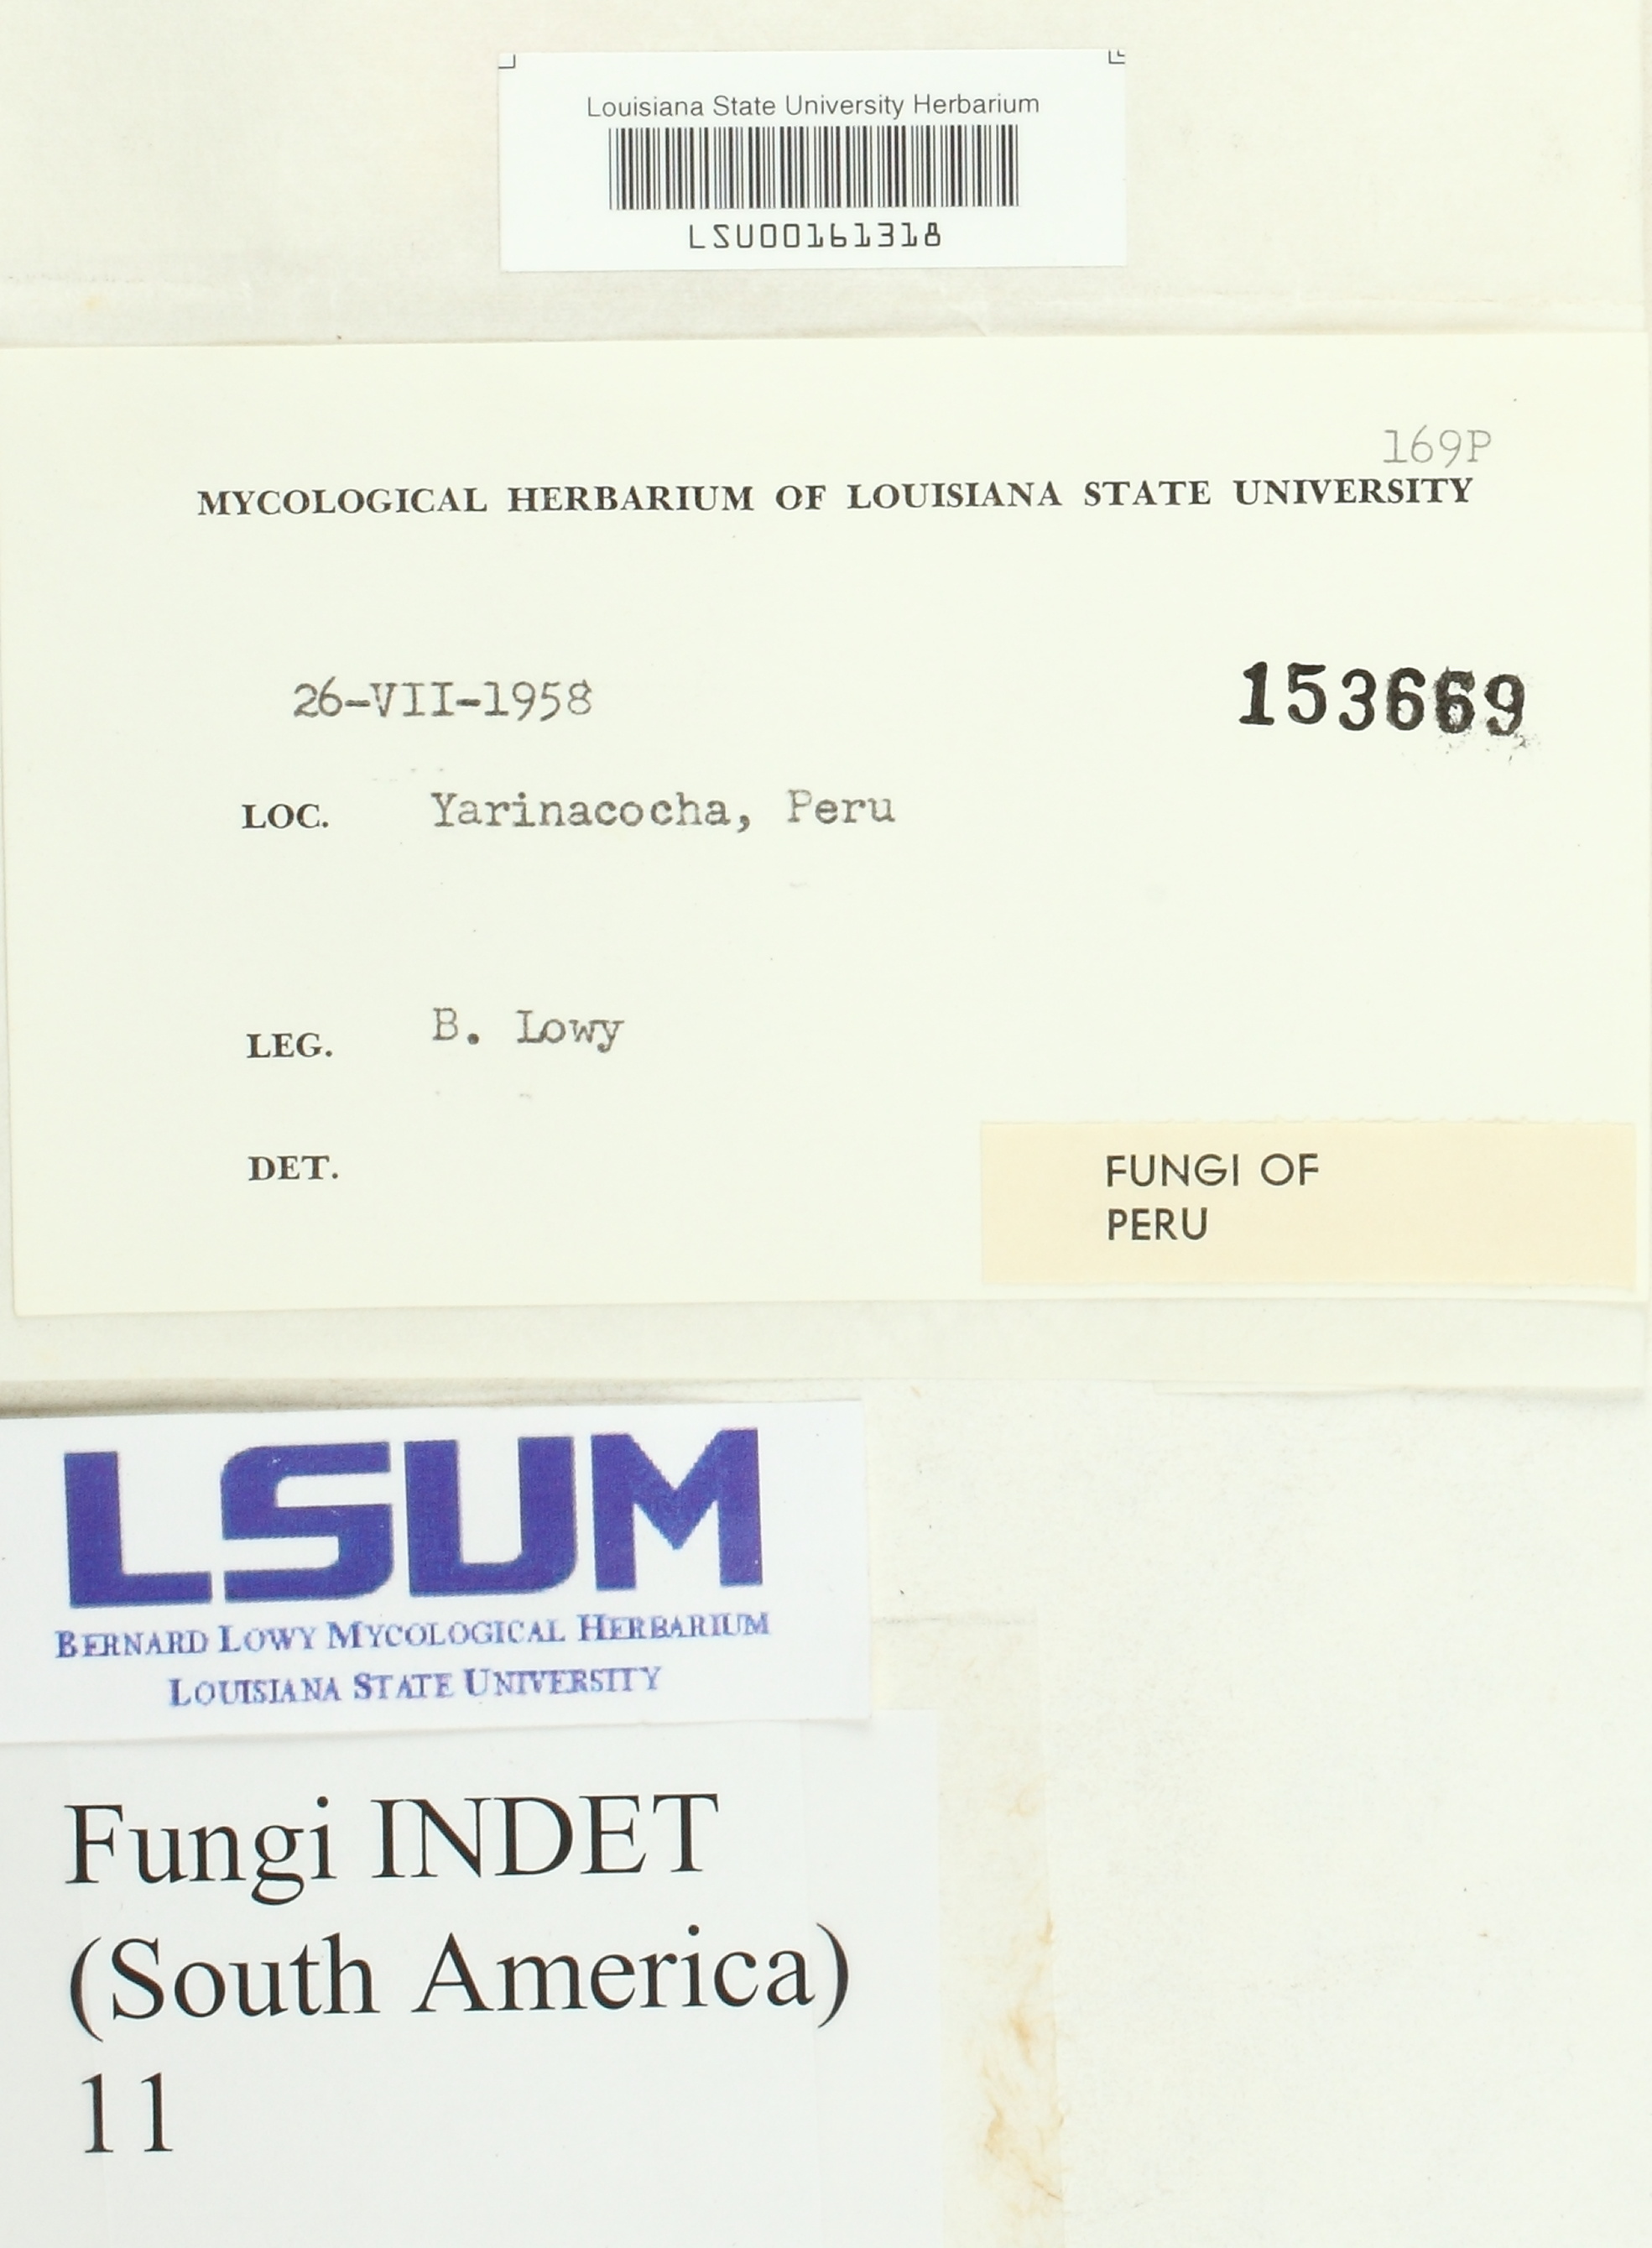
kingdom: Fungi
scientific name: Fungi
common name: Fungi
